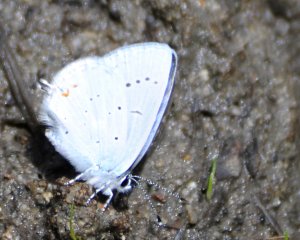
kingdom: Animalia
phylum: Arthropoda
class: Insecta
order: Lepidoptera
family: Lycaenidae
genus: Elkalyce
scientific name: Elkalyce amyntula
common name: Western Tailed-Blue
